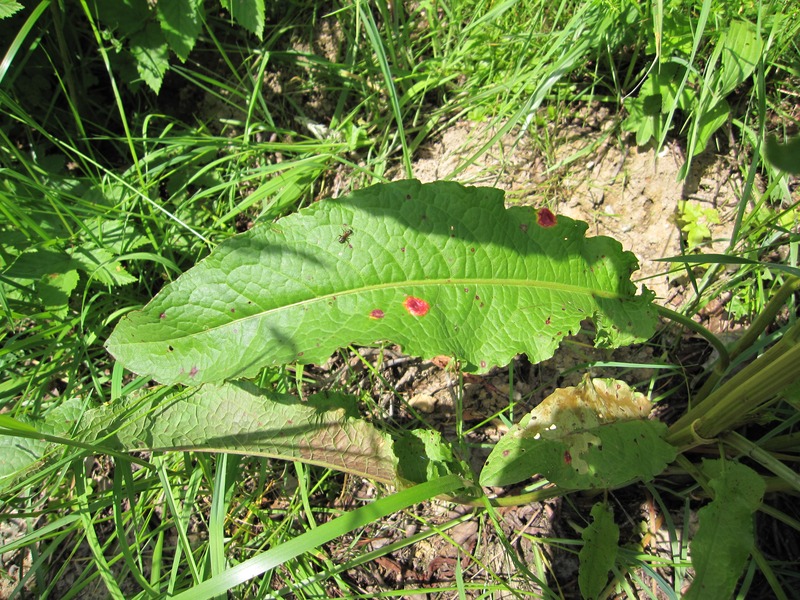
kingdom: Fungi
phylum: Basidiomycota
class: Pucciniomycetes
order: Pucciniales
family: Pucciniaceae
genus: Puccinia
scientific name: Puccinia phragmitis
